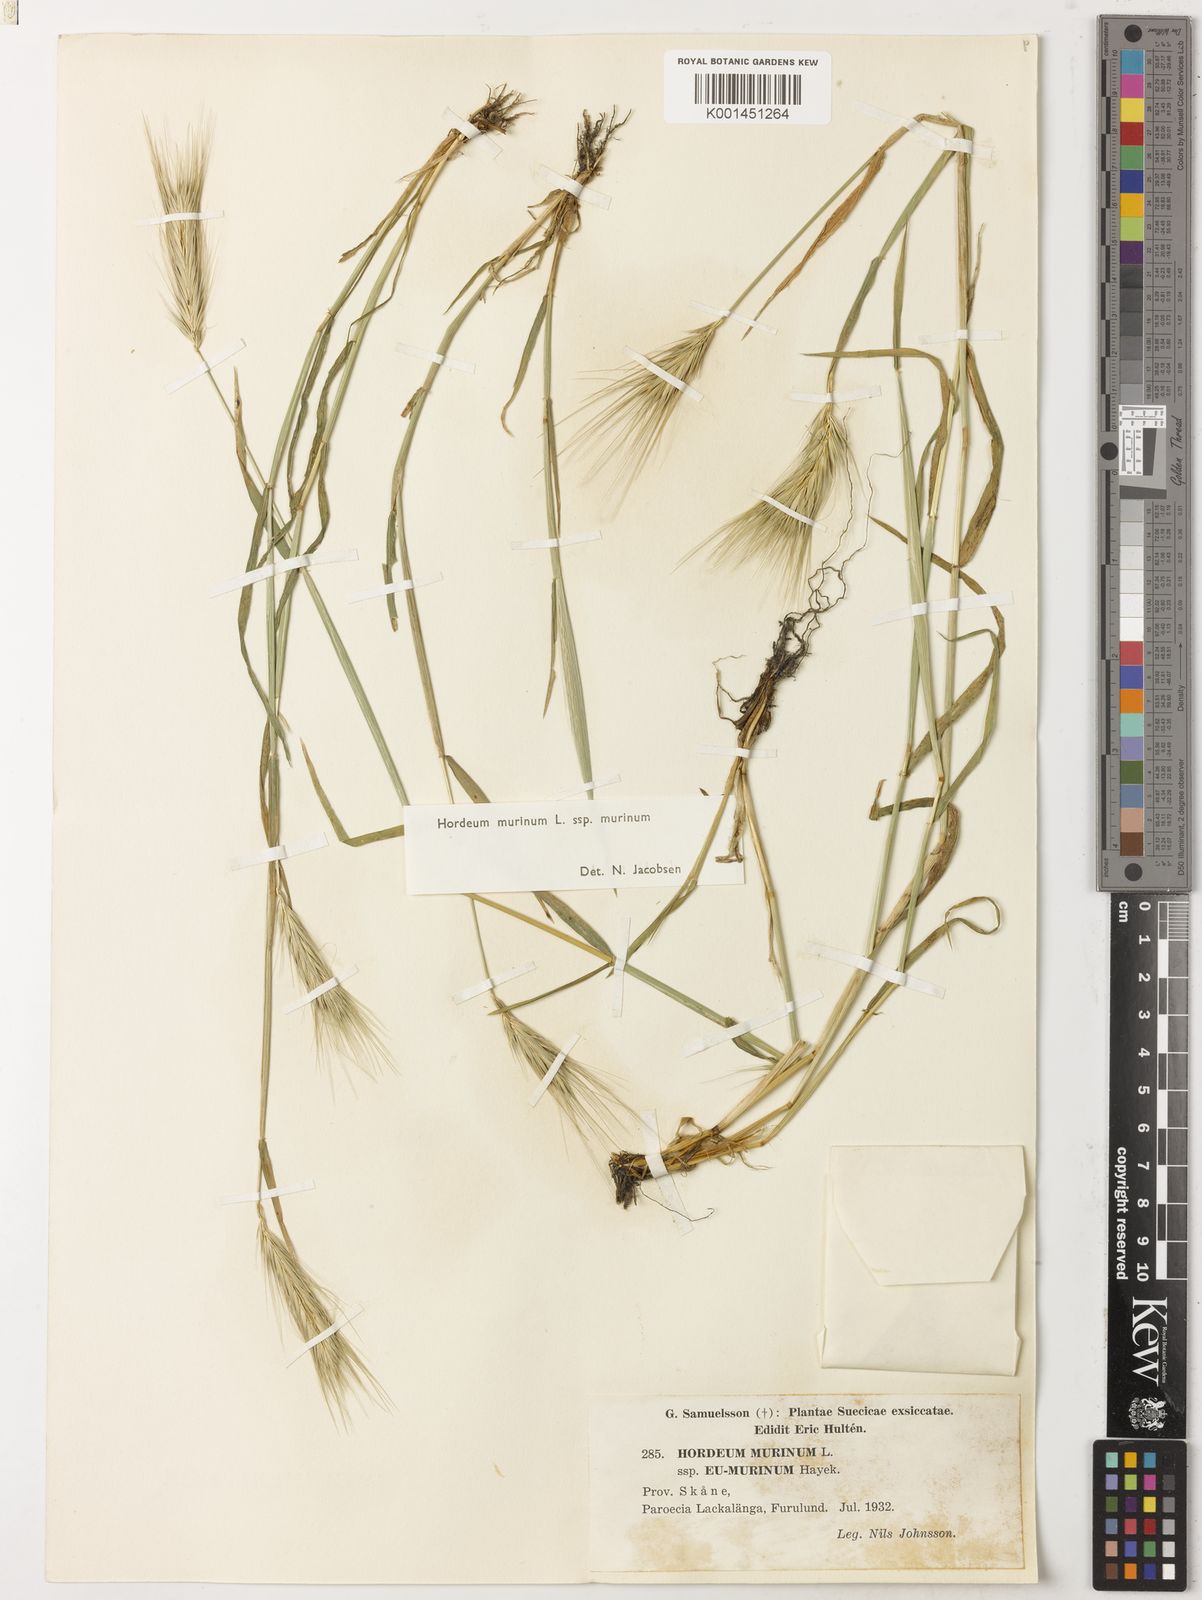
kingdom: Plantae
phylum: Tracheophyta
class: Liliopsida
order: Poales
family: Poaceae
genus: Hordeum
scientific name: Hordeum murinum
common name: Wall barley
